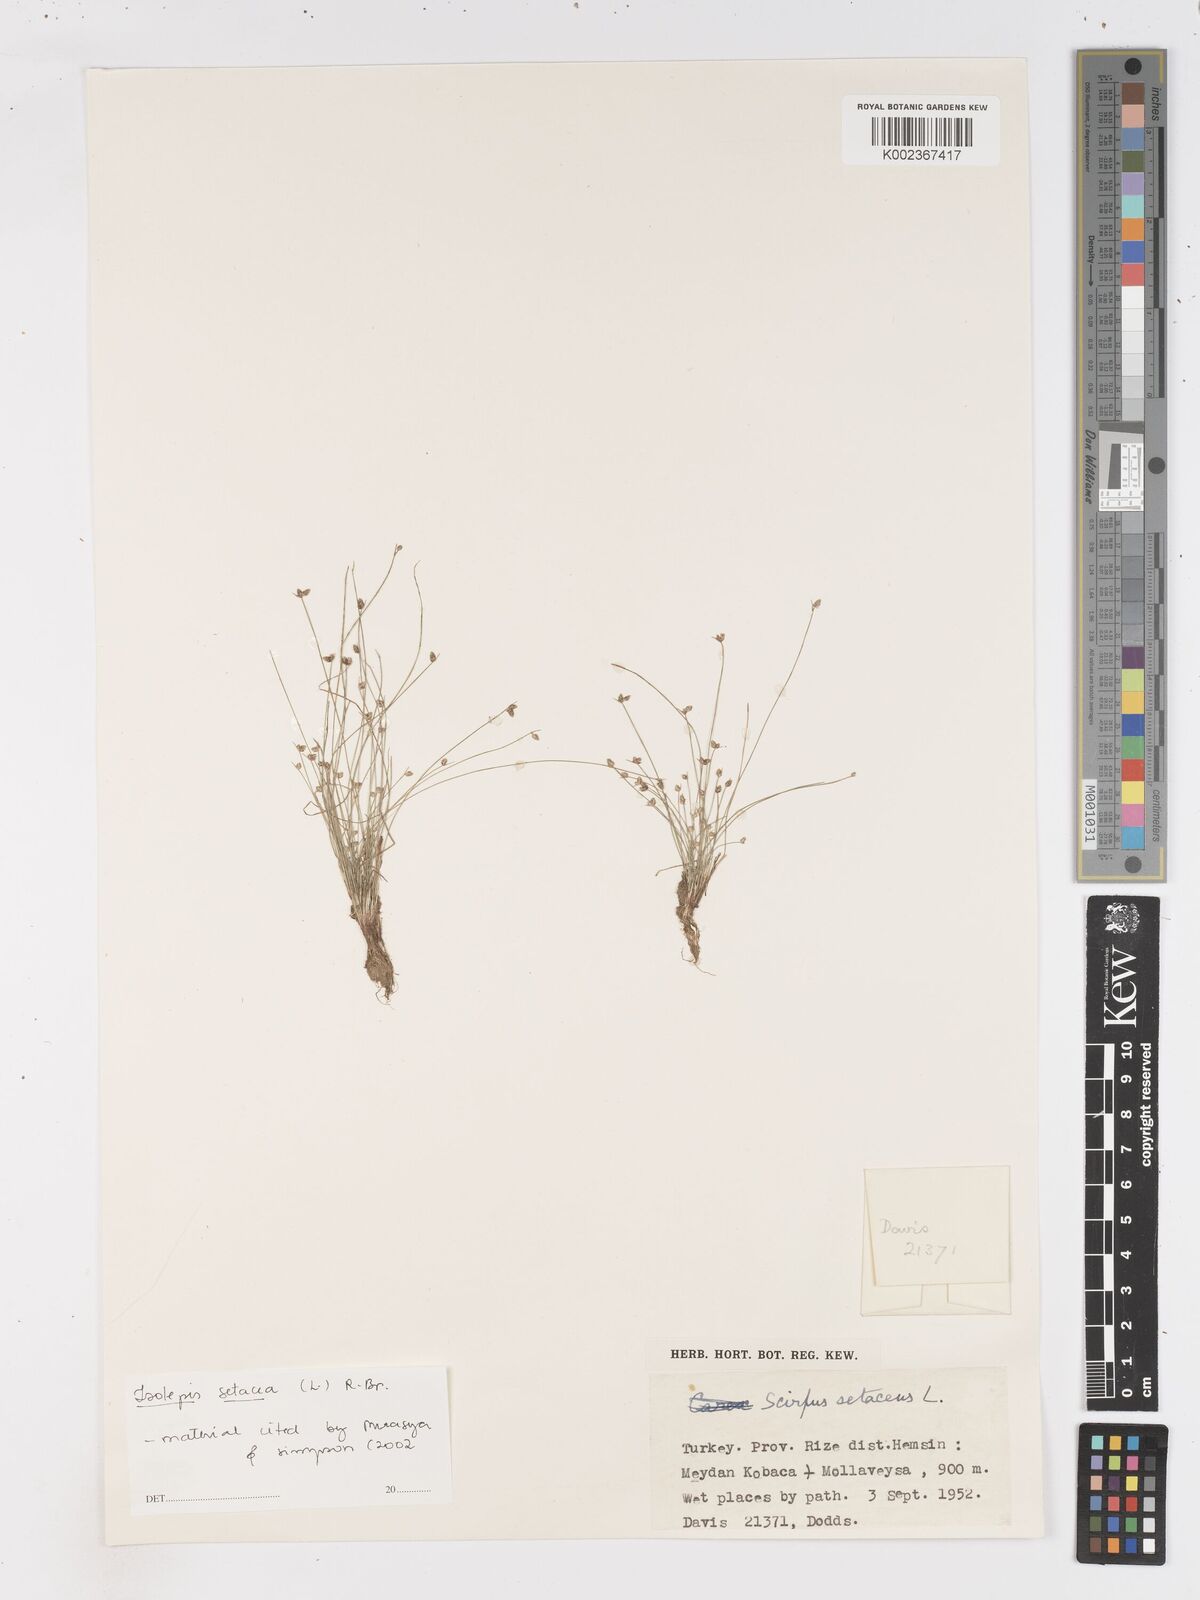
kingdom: Plantae
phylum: Tracheophyta
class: Liliopsida
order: Poales
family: Cyperaceae
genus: Isolepis
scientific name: Isolepis setacea
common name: Bristle club-rush
